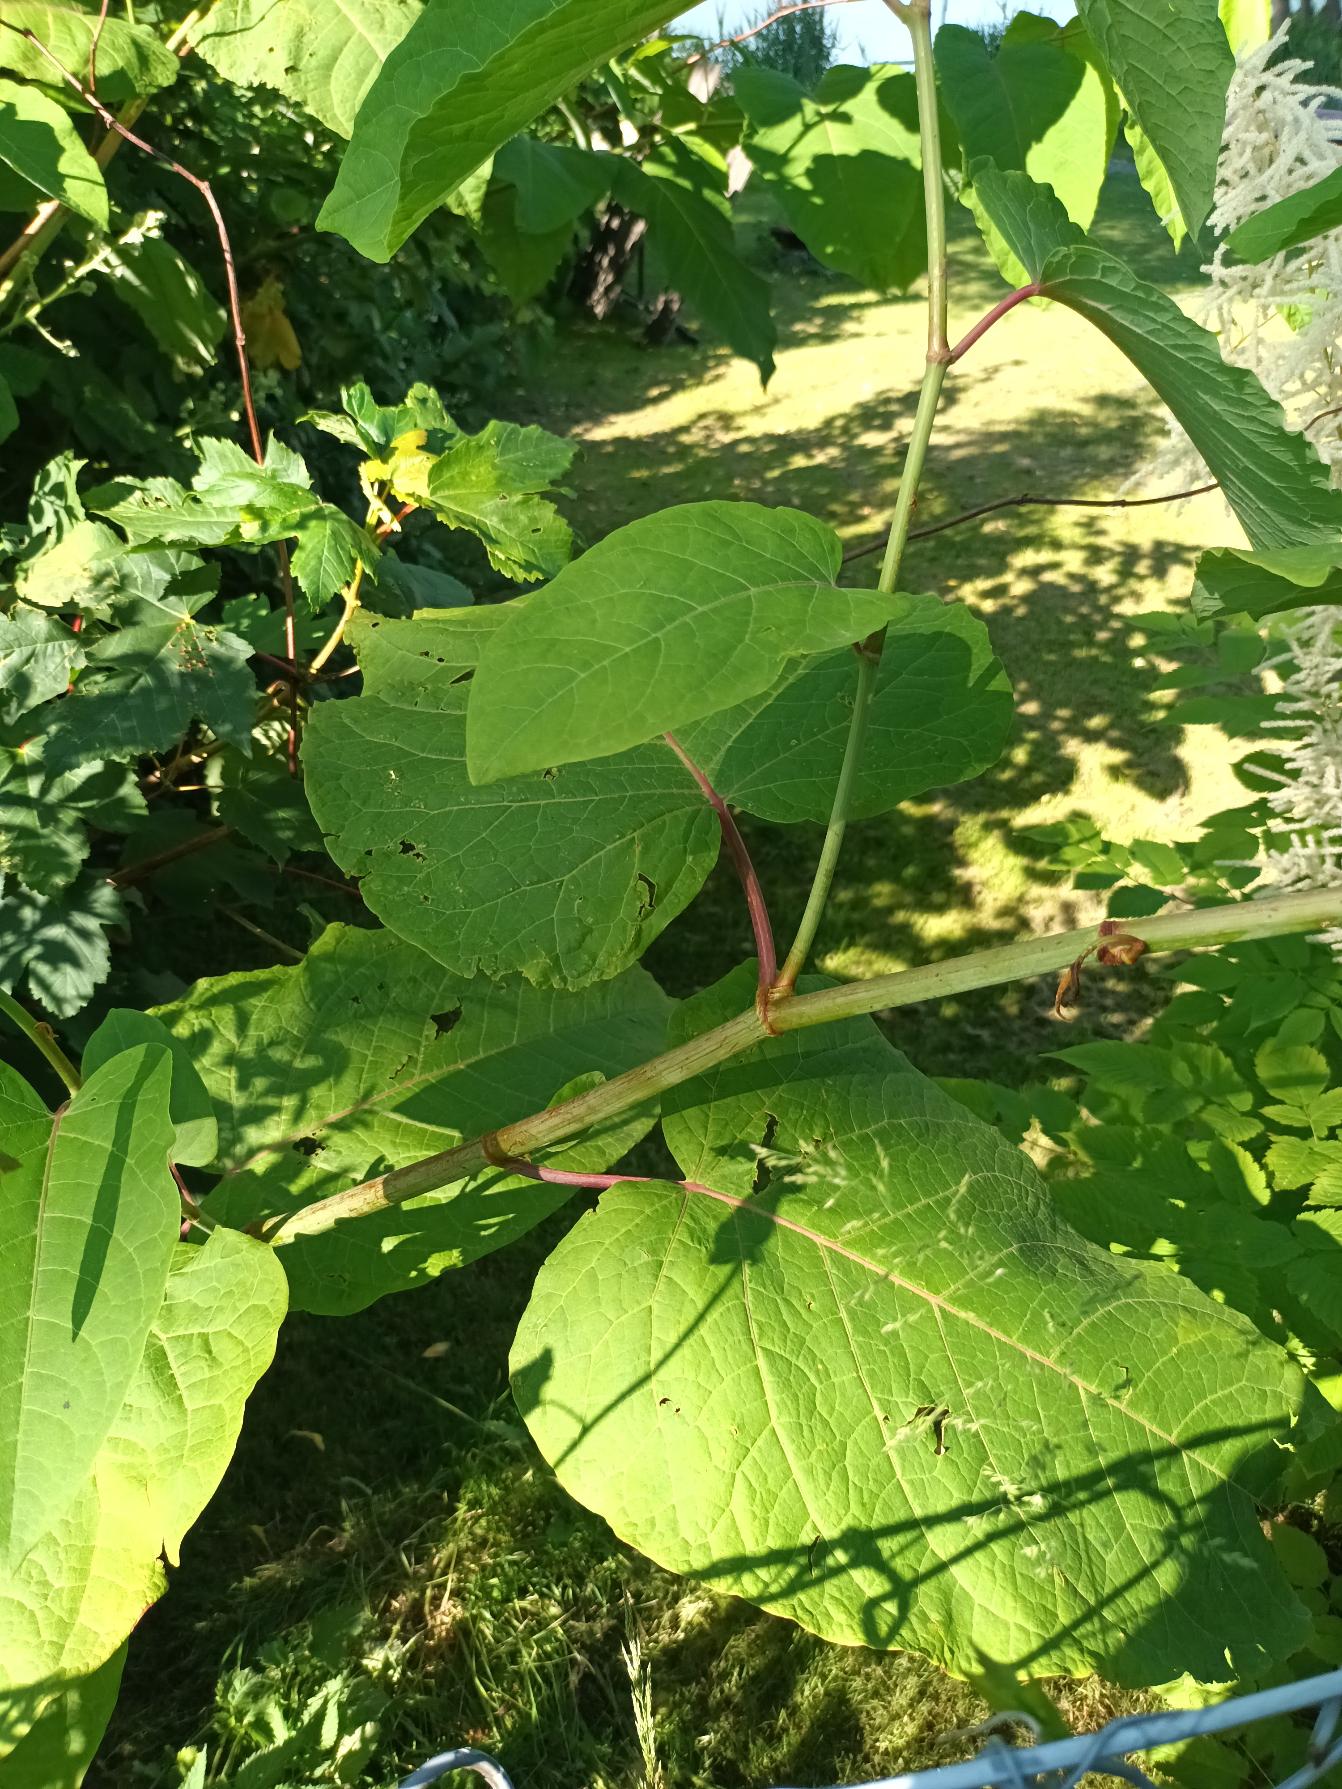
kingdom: Plantae
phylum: Tracheophyta
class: Magnoliopsida
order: Caryophyllales
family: Polygonaceae
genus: Reynoutria
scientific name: Reynoutria sachalinensis
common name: Kæmpe-pileurt
